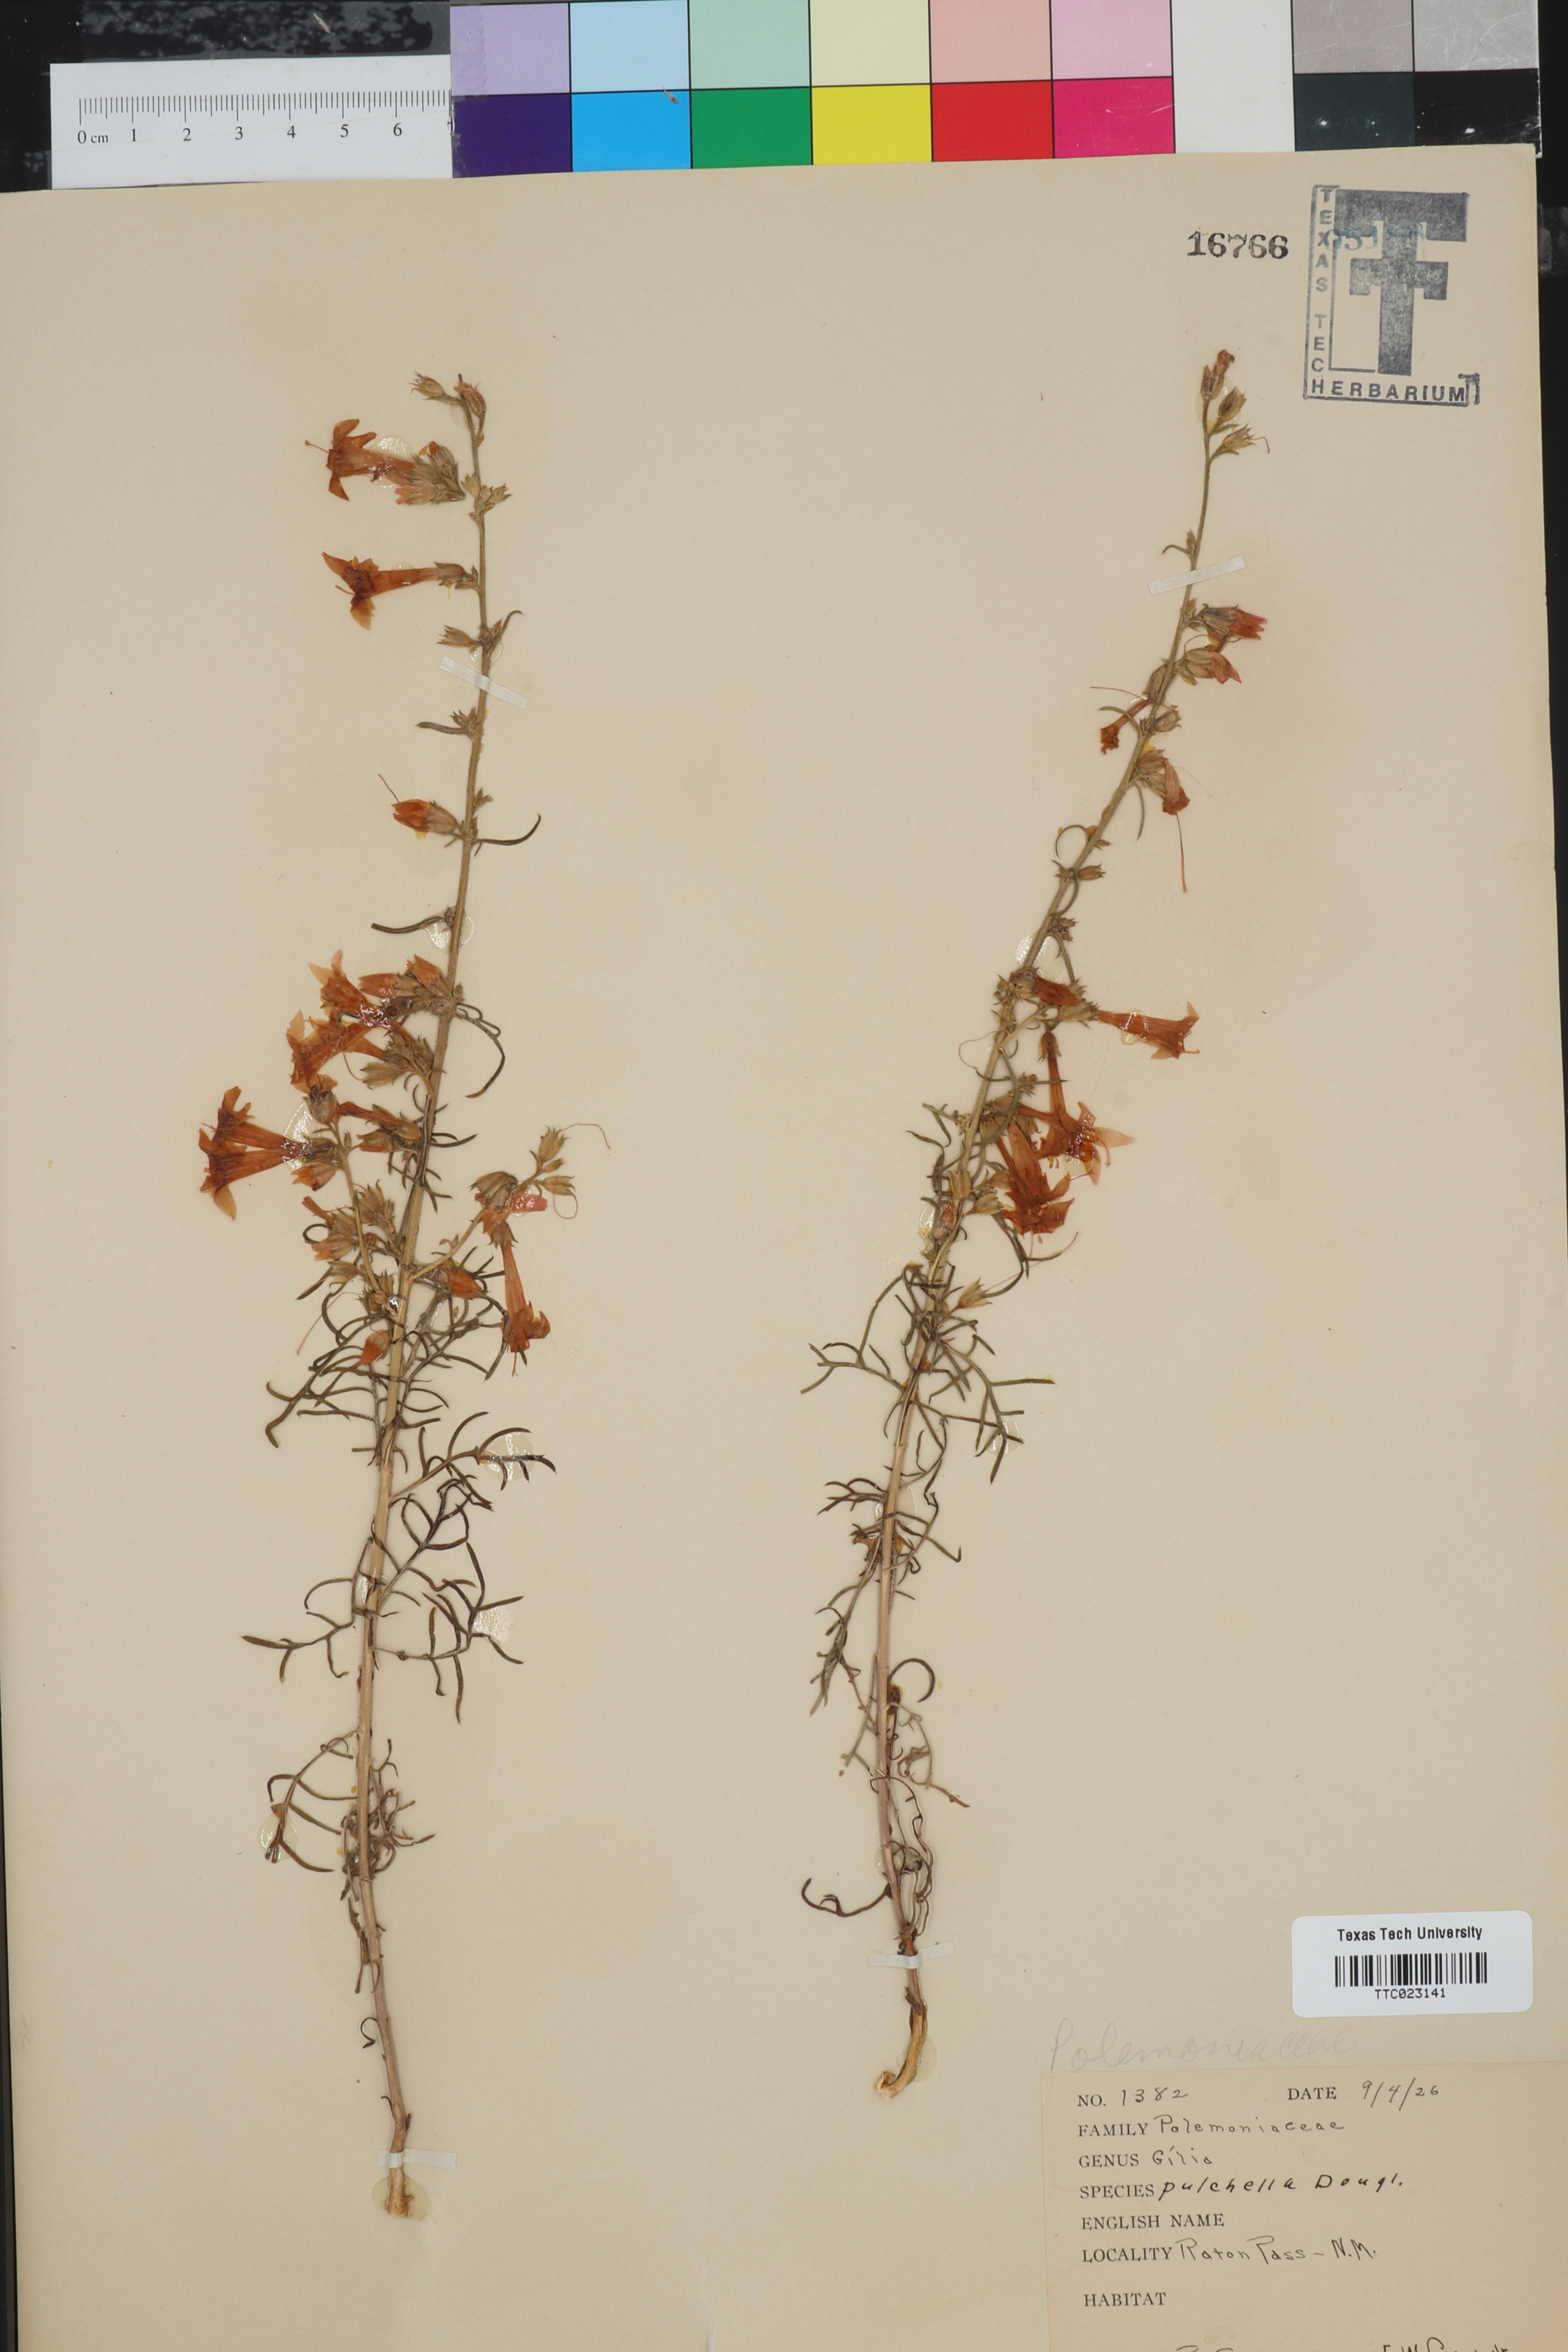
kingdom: Plantae
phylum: Tracheophyta
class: Magnoliopsida
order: Ericales
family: Polemoniaceae
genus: Ipomopsis
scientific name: Ipomopsis aggregata
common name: Scarlet gilia
